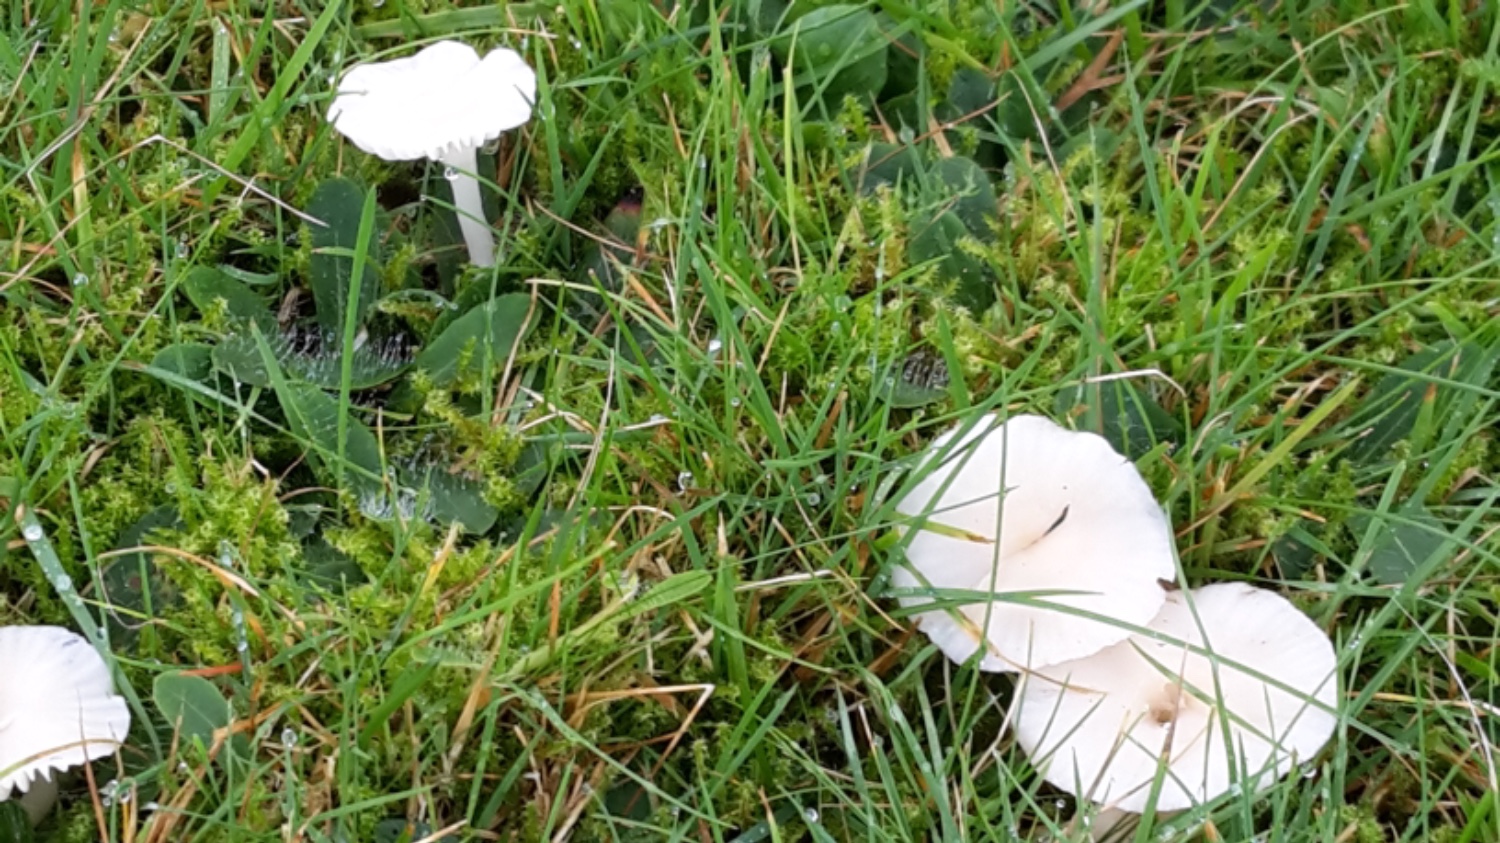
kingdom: Fungi
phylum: Basidiomycota
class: Agaricomycetes
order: Agaricales
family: Hygrophoraceae
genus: Cuphophyllus
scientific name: Cuphophyllus virgineus
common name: snehvid vokshat
